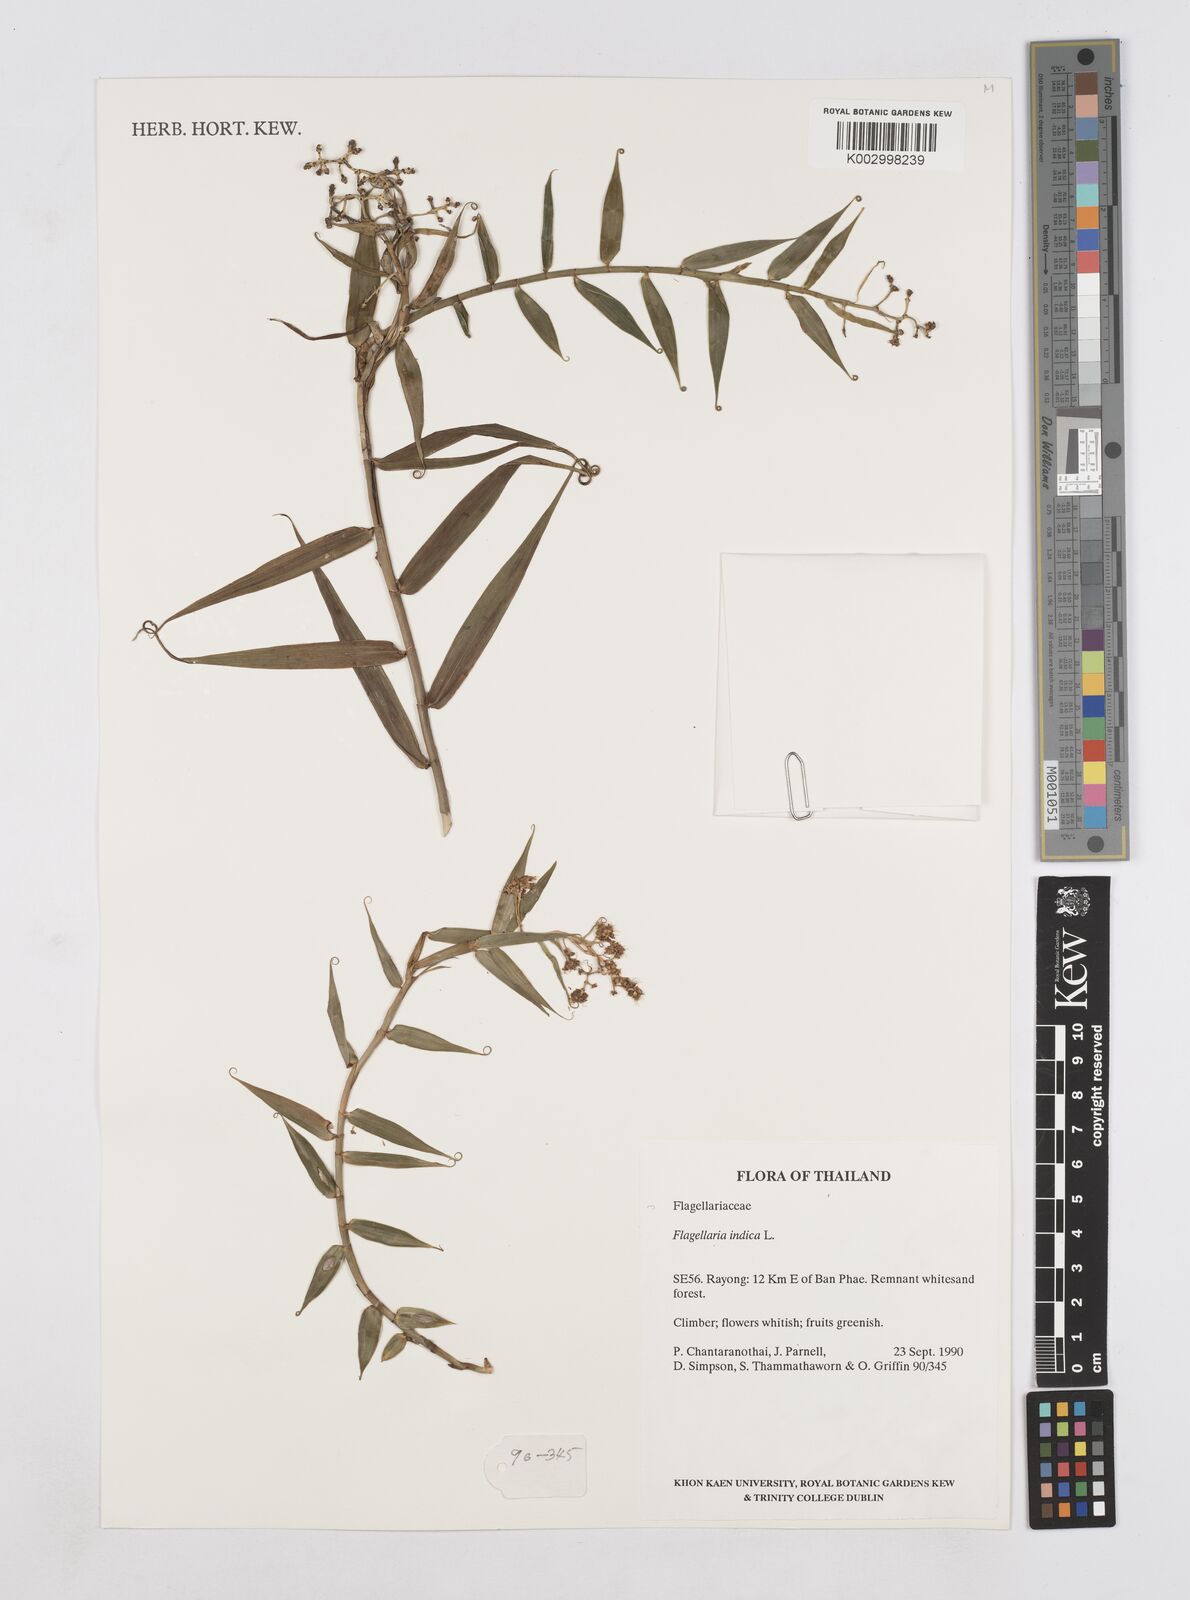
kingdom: Plantae
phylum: Tracheophyta
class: Liliopsida
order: Poales
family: Flagellariaceae
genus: Flagellaria
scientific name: Flagellaria indica
